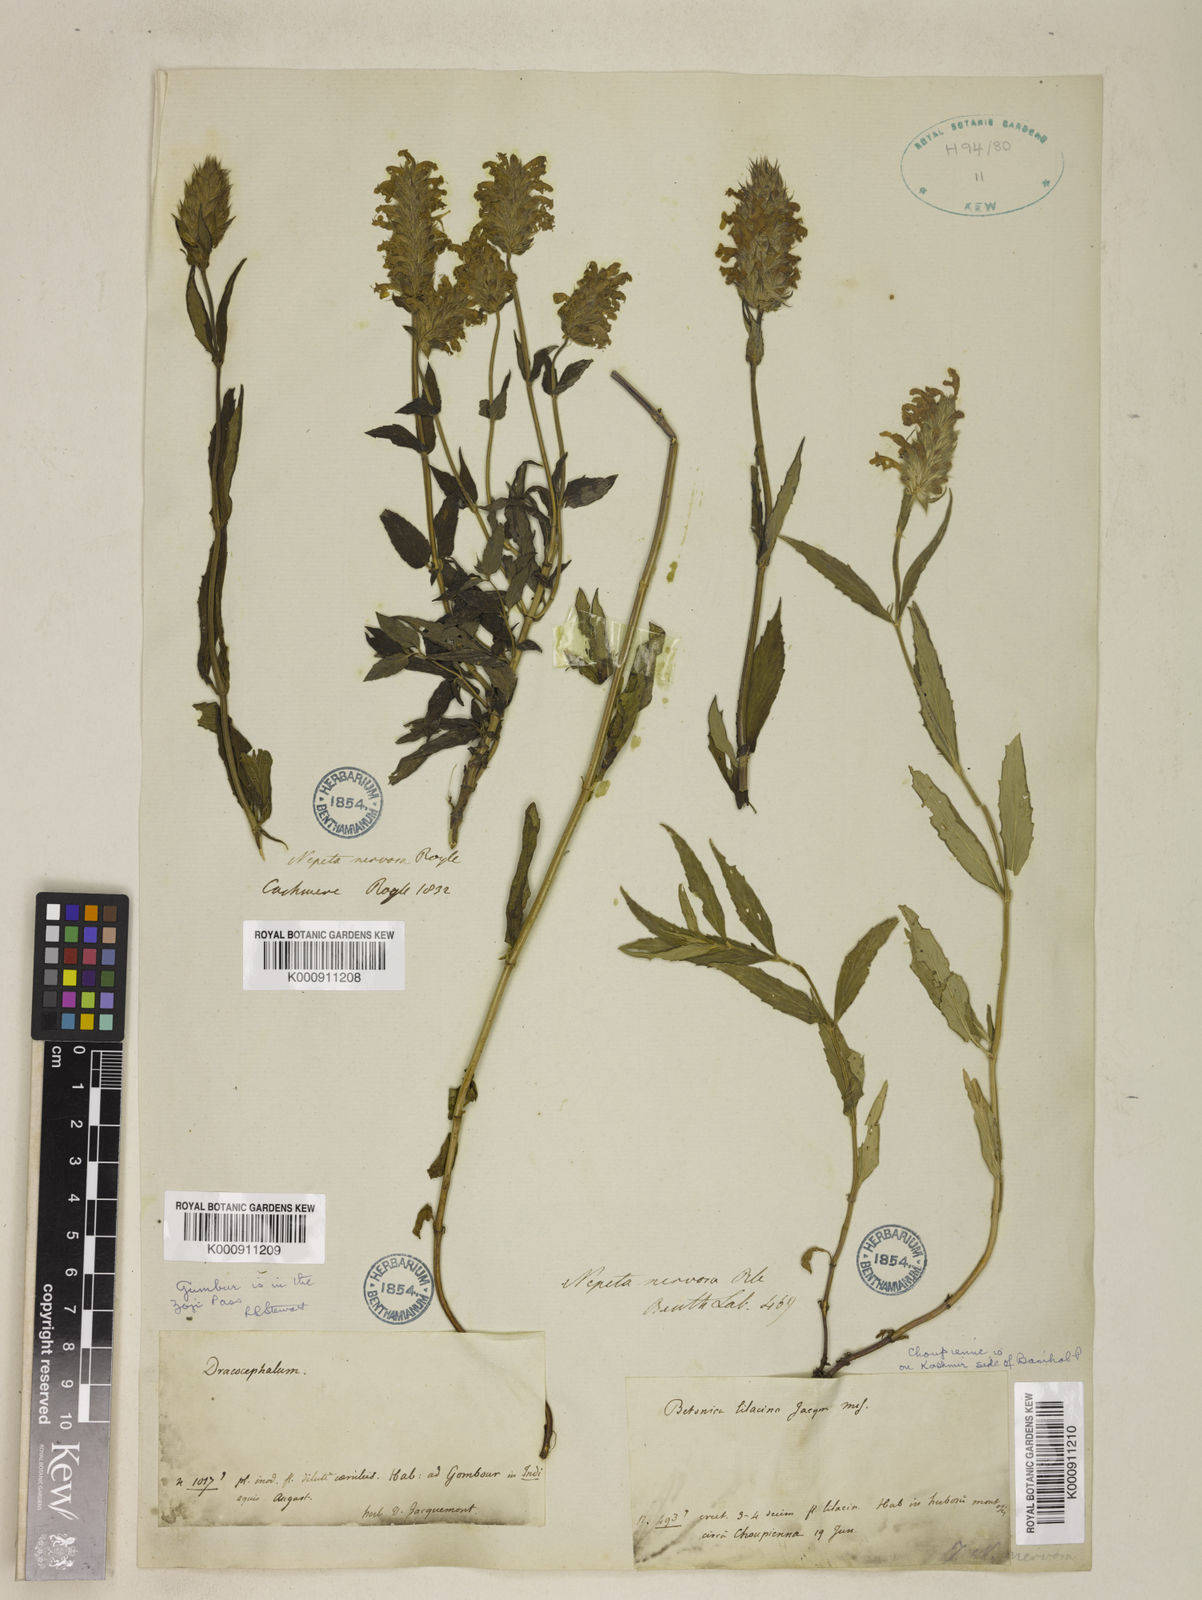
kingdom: Plantae
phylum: Tracheophyta
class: Magnoliopsida
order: Lamiales
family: Lamiaceae
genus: Nepeta
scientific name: Nepeta nervosa
